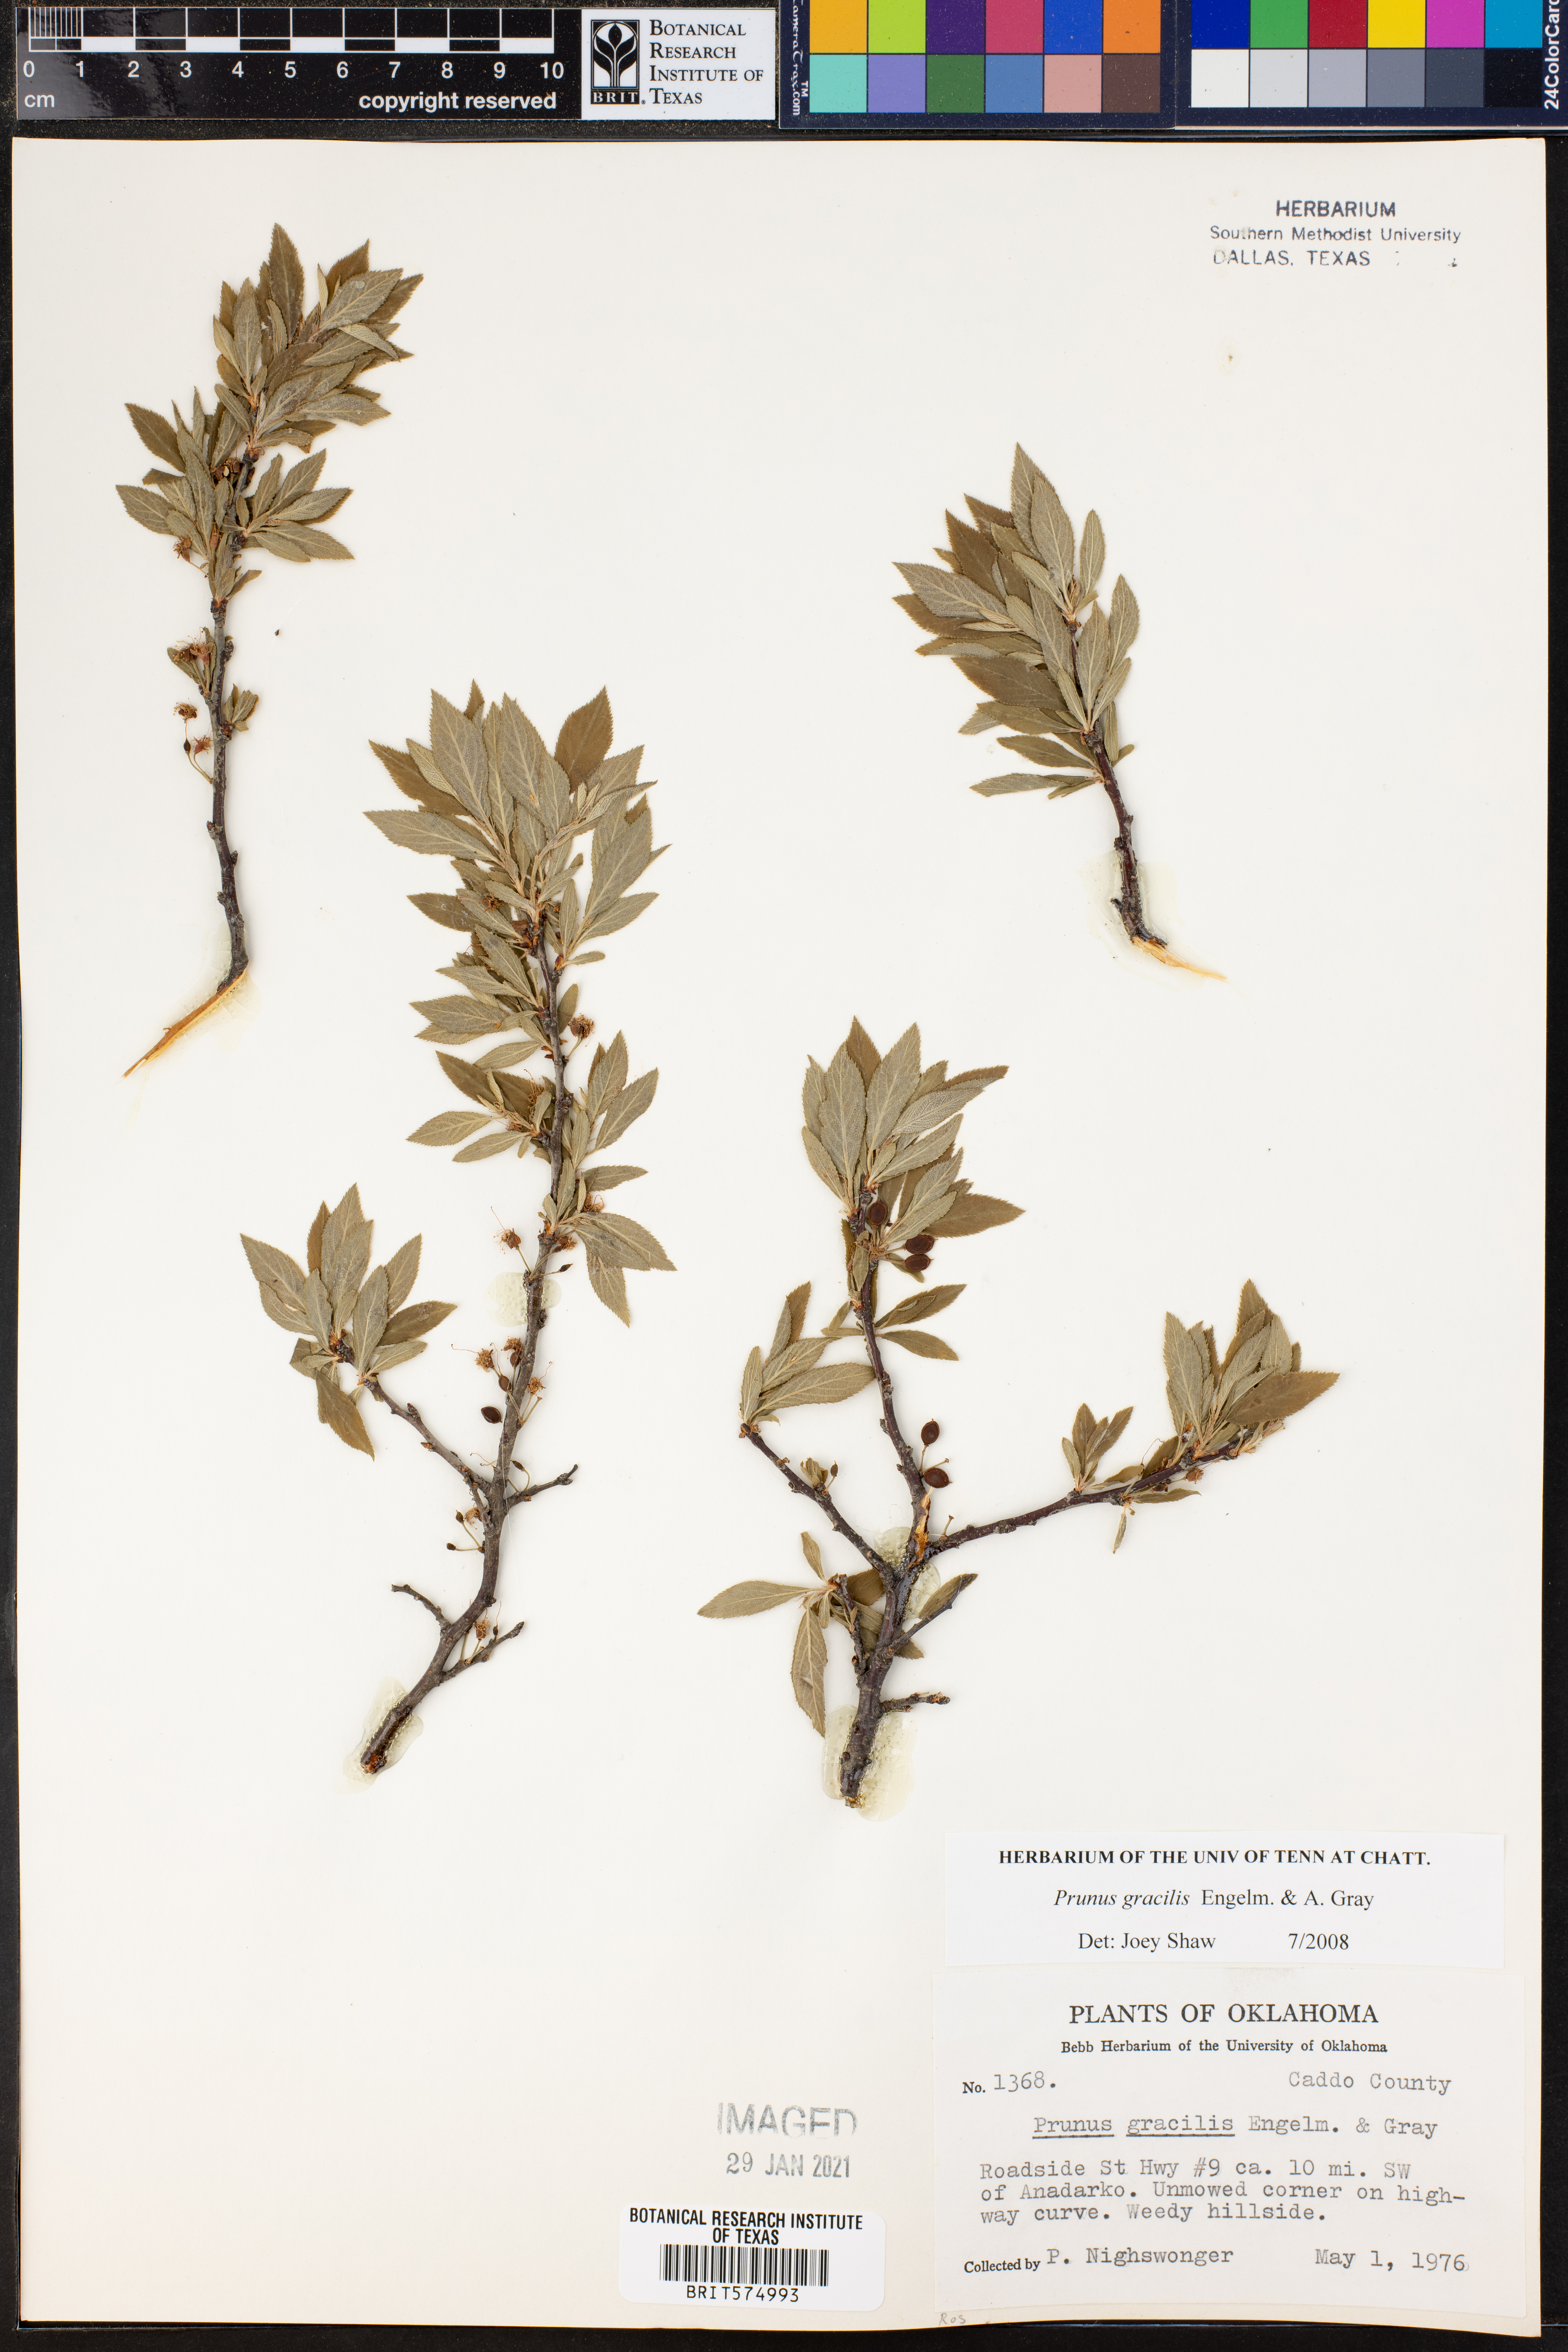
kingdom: Plantae
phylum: Tracheophyta
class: Magnoliopsida
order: Rosales
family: Rosaceae
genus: Prunus
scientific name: Prunus gracilis
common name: Oklahoma plum
